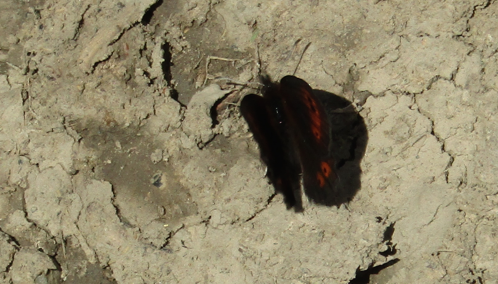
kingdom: Animalia
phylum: Arthropoda
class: Insecta
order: Lepidoptera
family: Nymphalidae
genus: Erebia
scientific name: Erebia epipsodea
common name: Common Alpine
